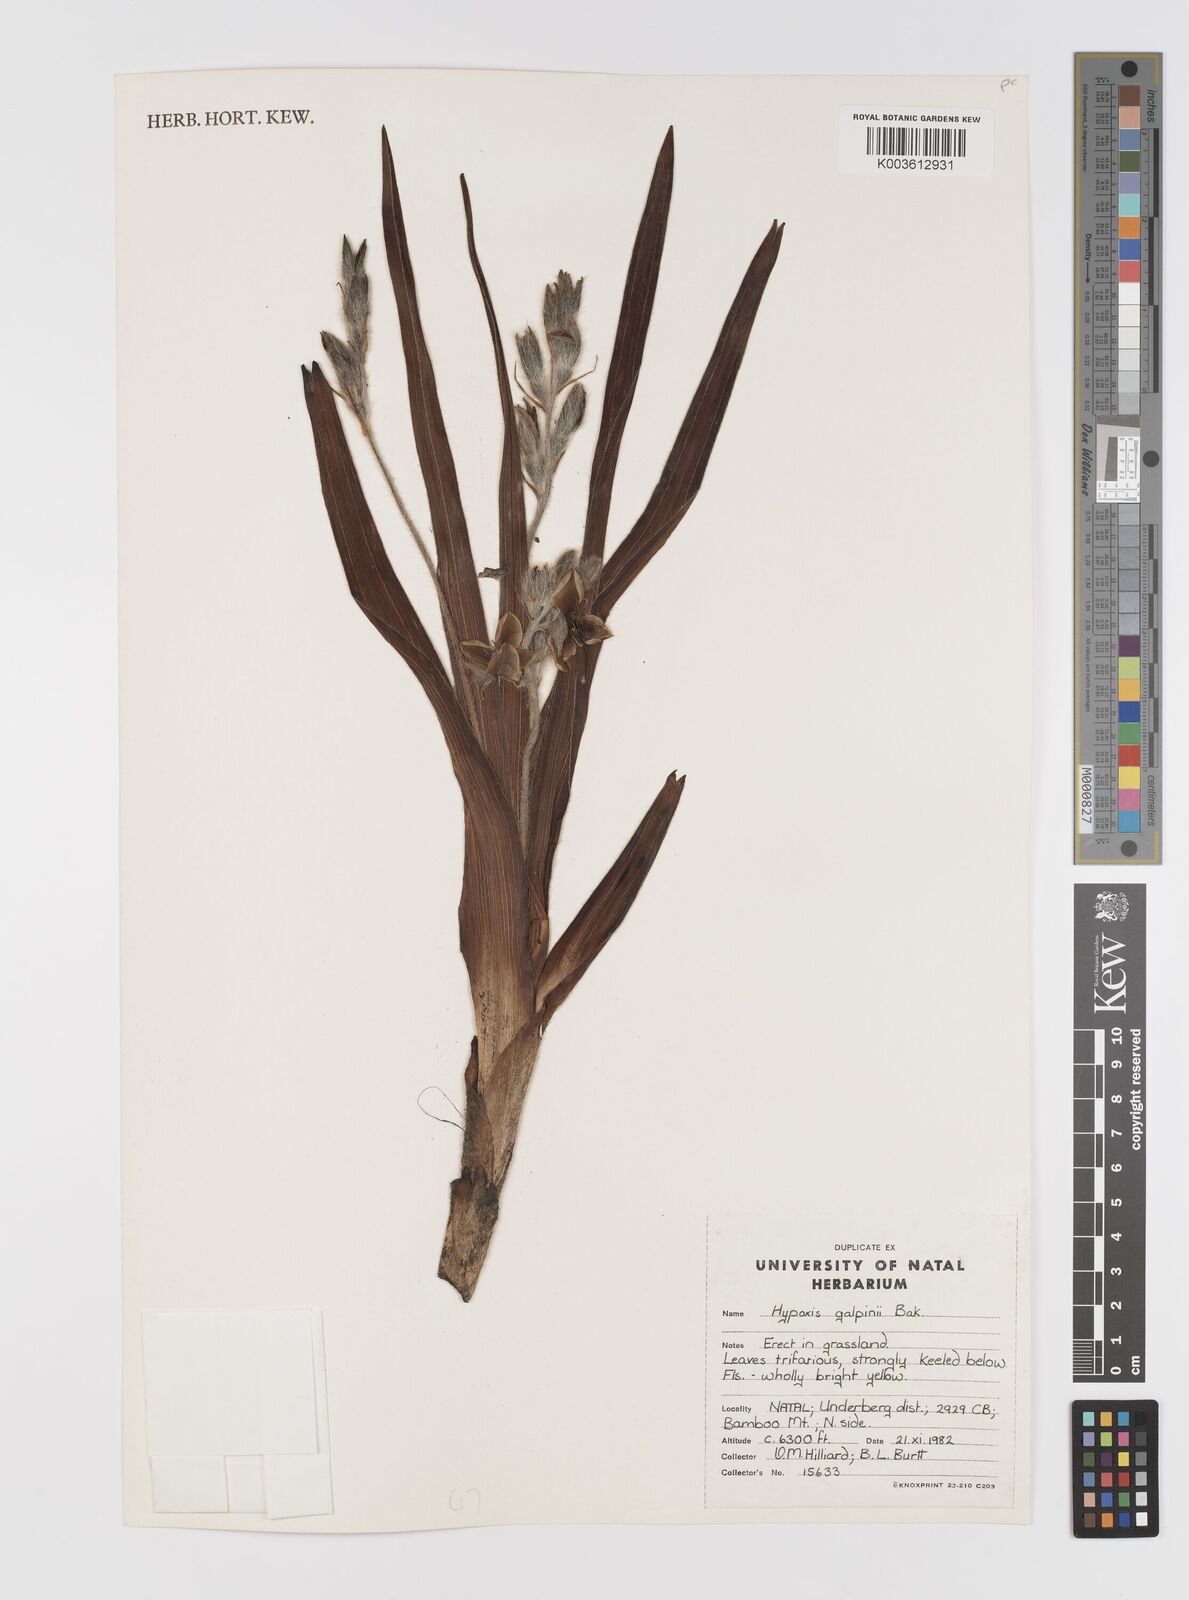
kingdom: Plantae
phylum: Tracheophyta
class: Liliopsida
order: Asparagales
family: Hypoxidaceae
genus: Hypoxis
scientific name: Hypoxis galpinii
